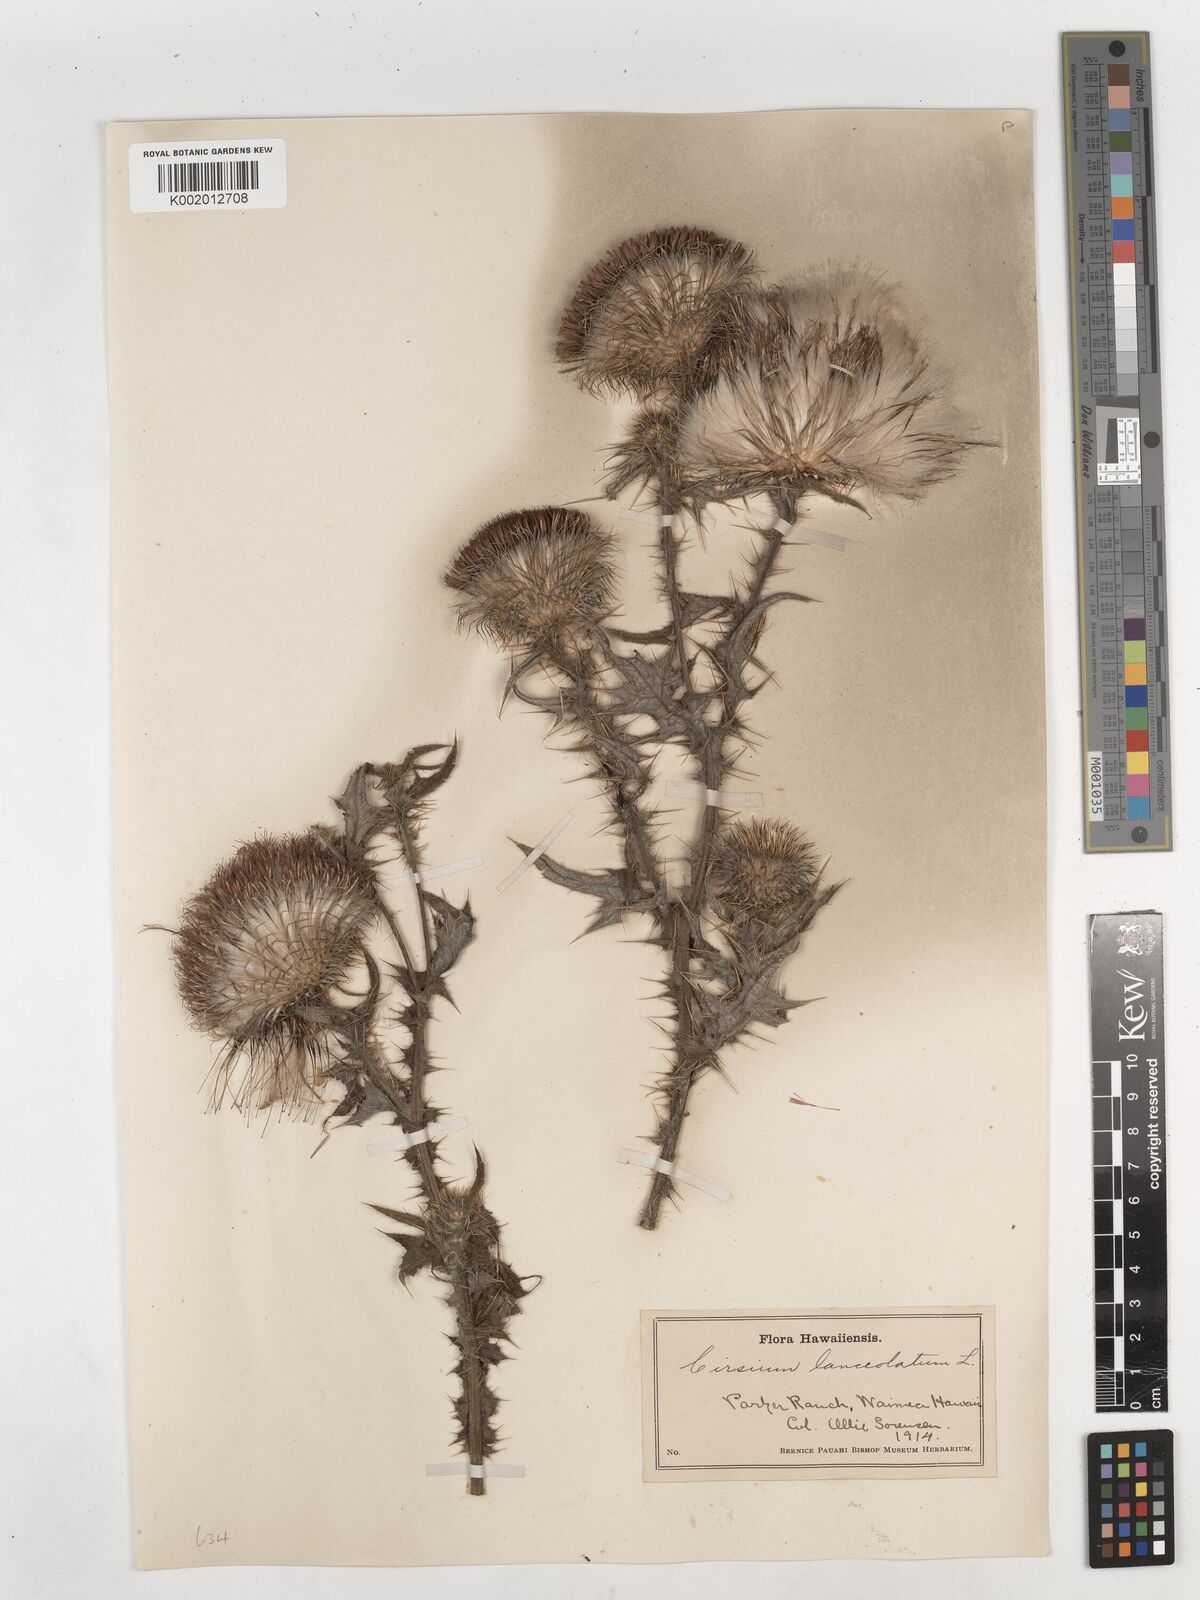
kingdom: Plantae
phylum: Tracheophyta
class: Magnoliopsida
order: Asterales
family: Asteraceae
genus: Cirsium
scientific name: Cirsium arvense
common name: Creeping thistle
